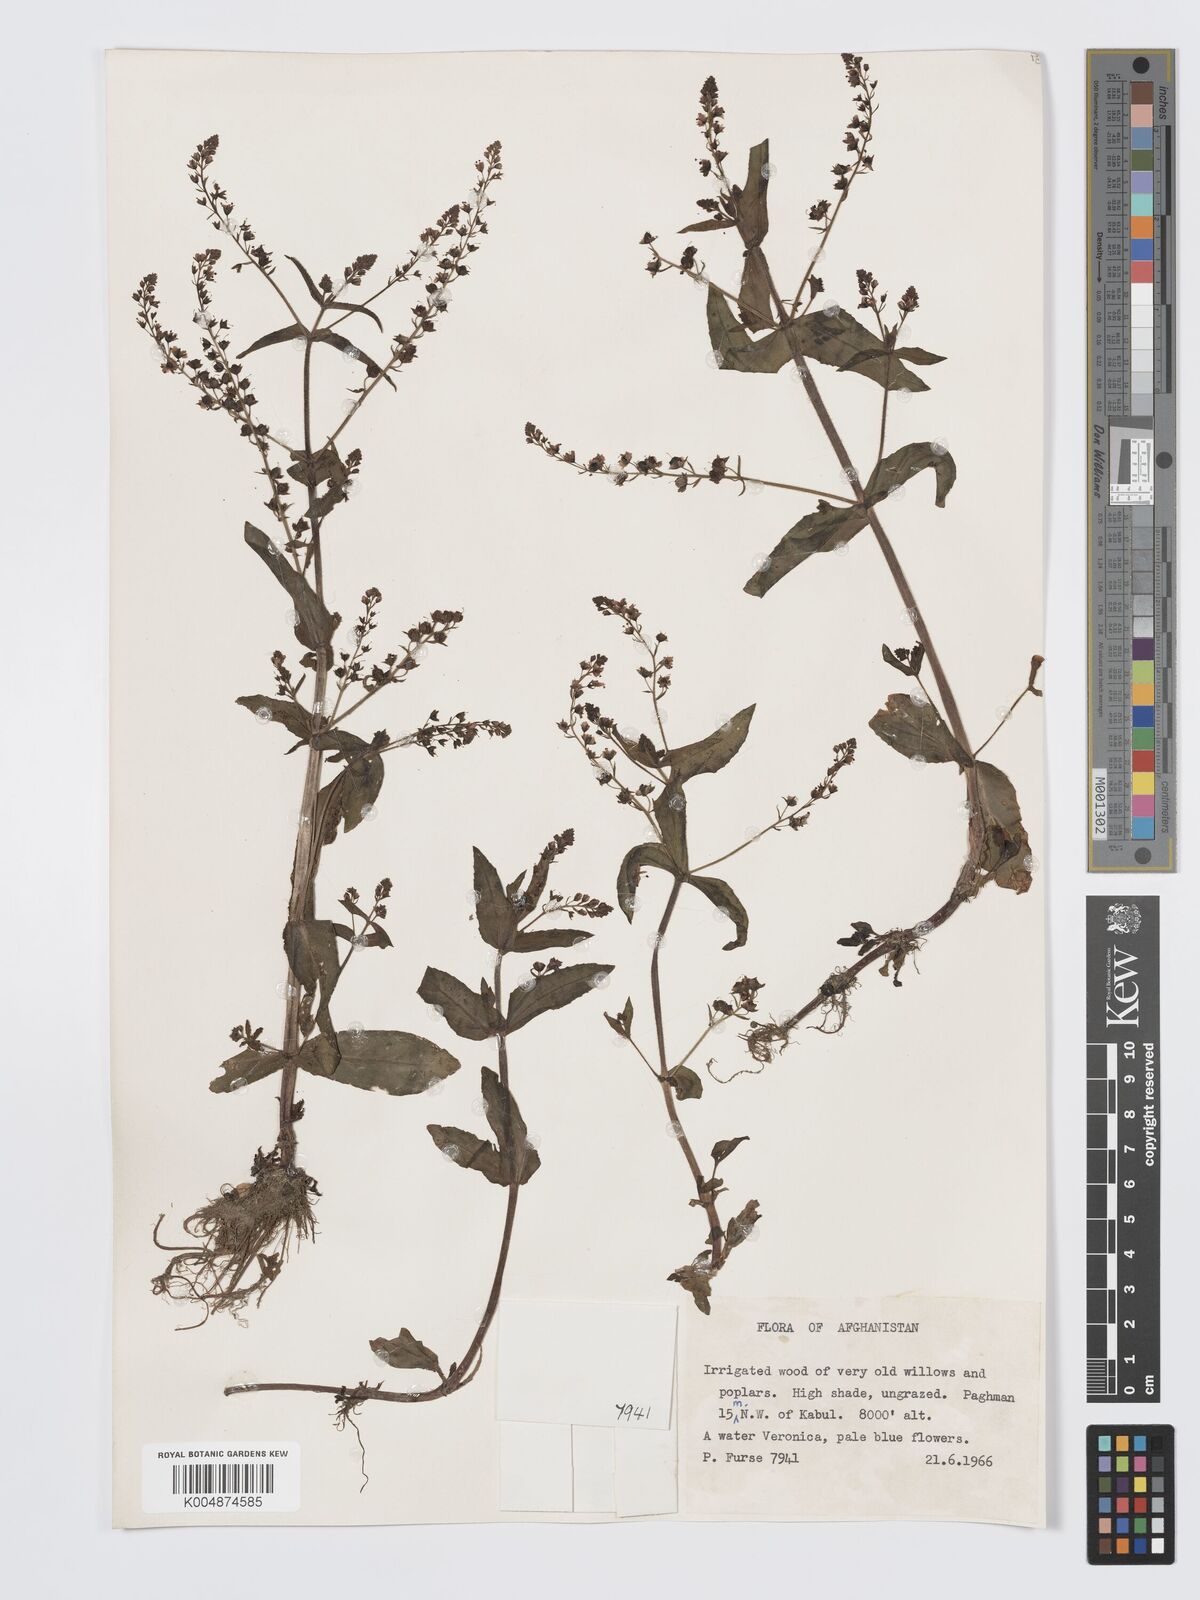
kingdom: Plantae
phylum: Tracheophyta
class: Magnoliopsida
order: Lamiales
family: Plantaginaceae
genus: Veronica
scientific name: Veronica
